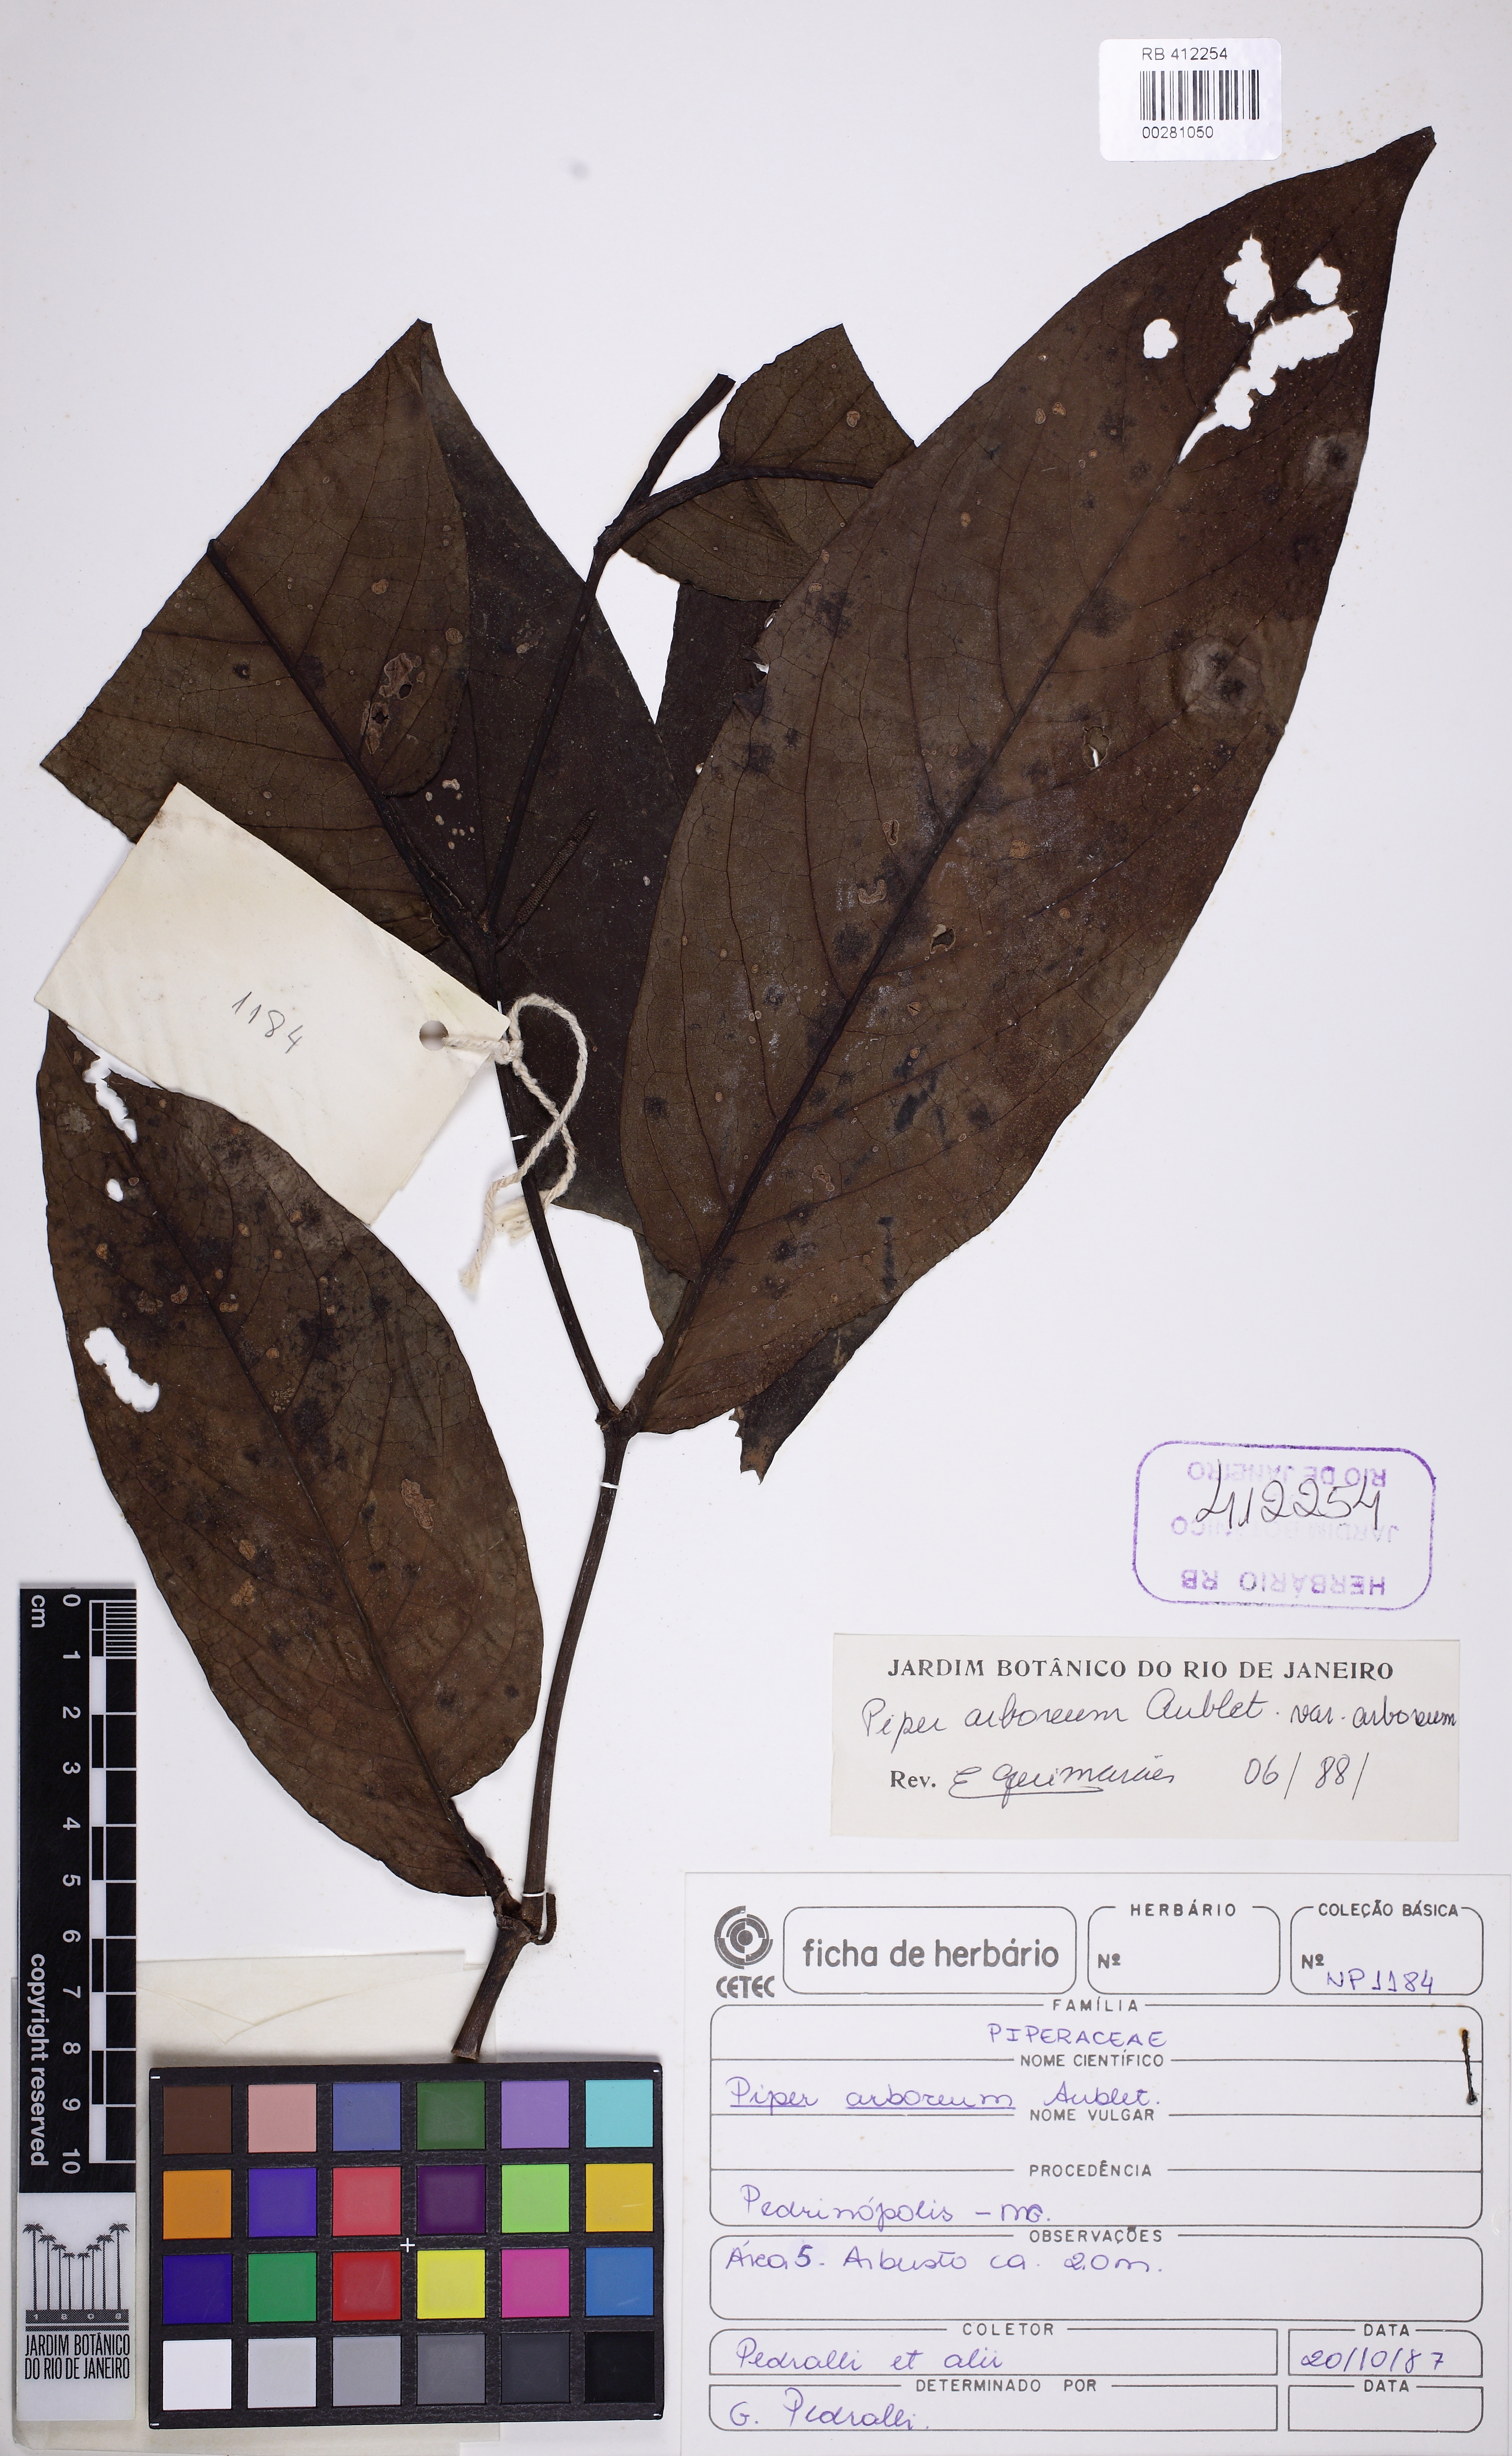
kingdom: Plantae
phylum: Tracheophyta
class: Magnoliopsida
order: Piperales
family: Piperaceae
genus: Piper
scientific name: Piper arboreum
